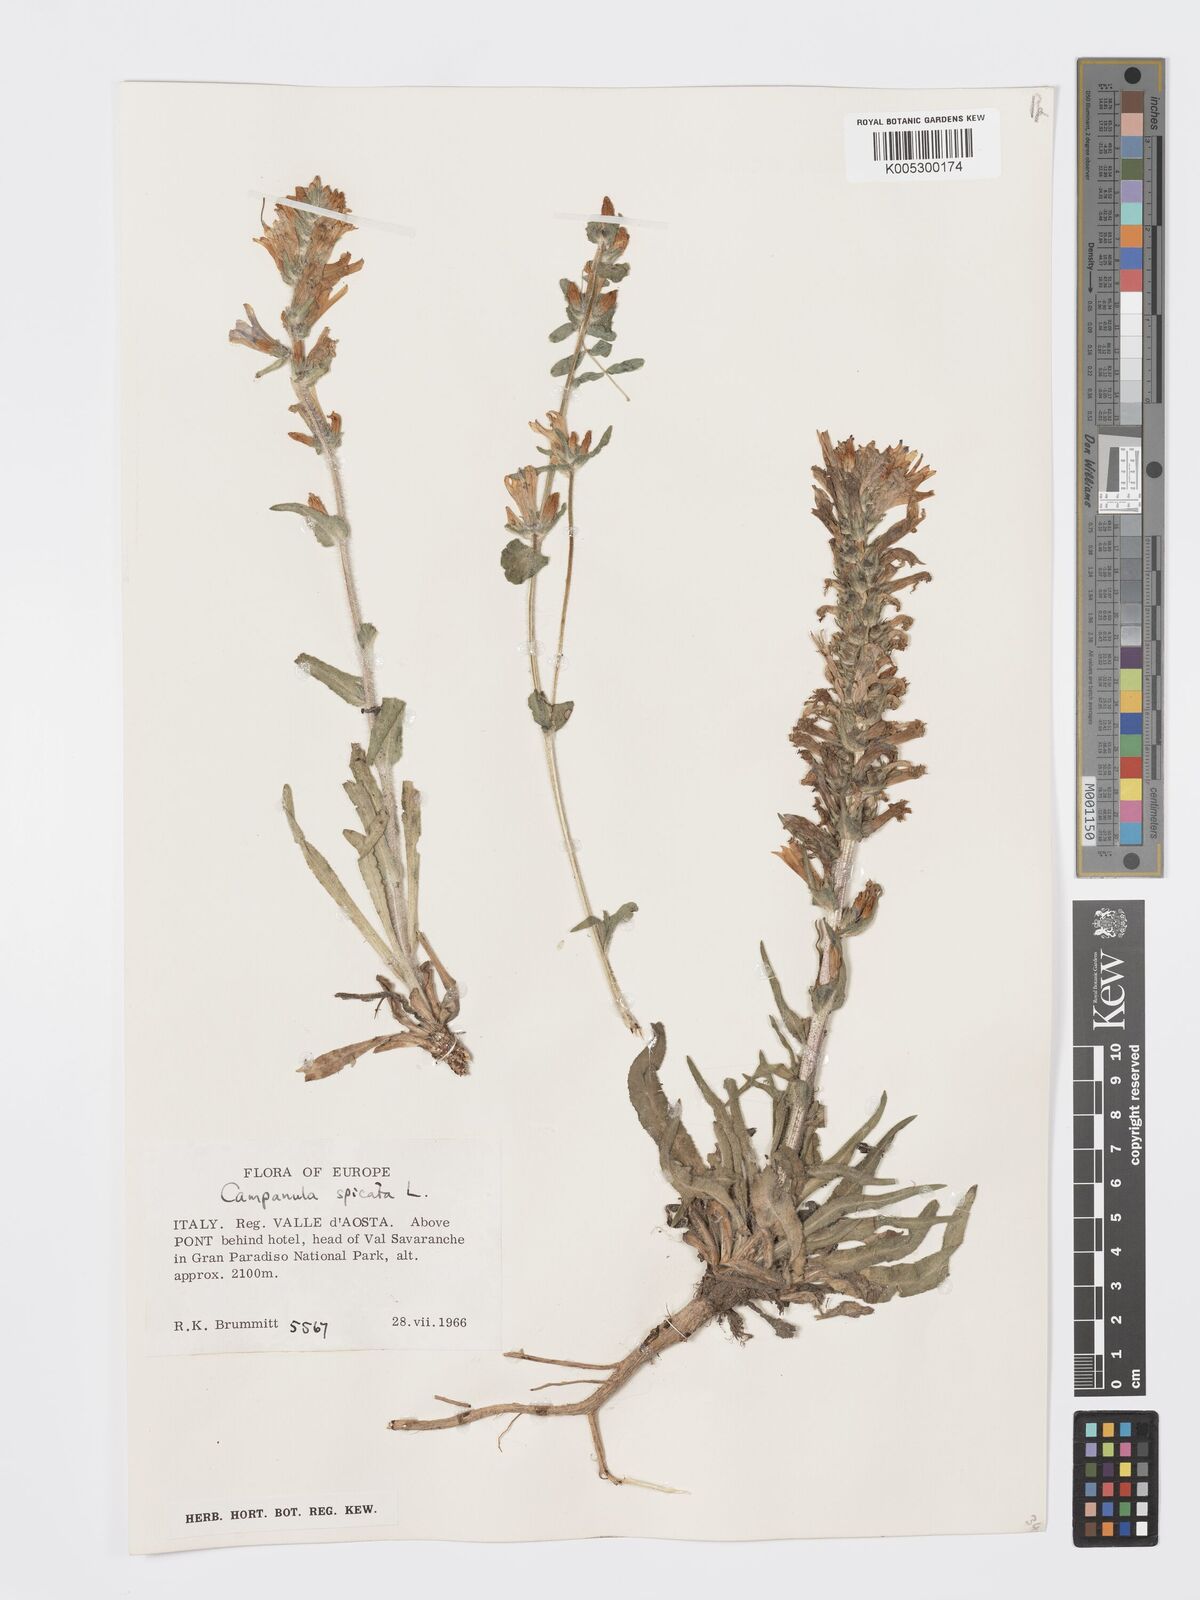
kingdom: Plantae
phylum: Tracheophyta
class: Magnoliopsida
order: Asterales
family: Campanulaceae
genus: Campanula
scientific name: Campanula spicata
